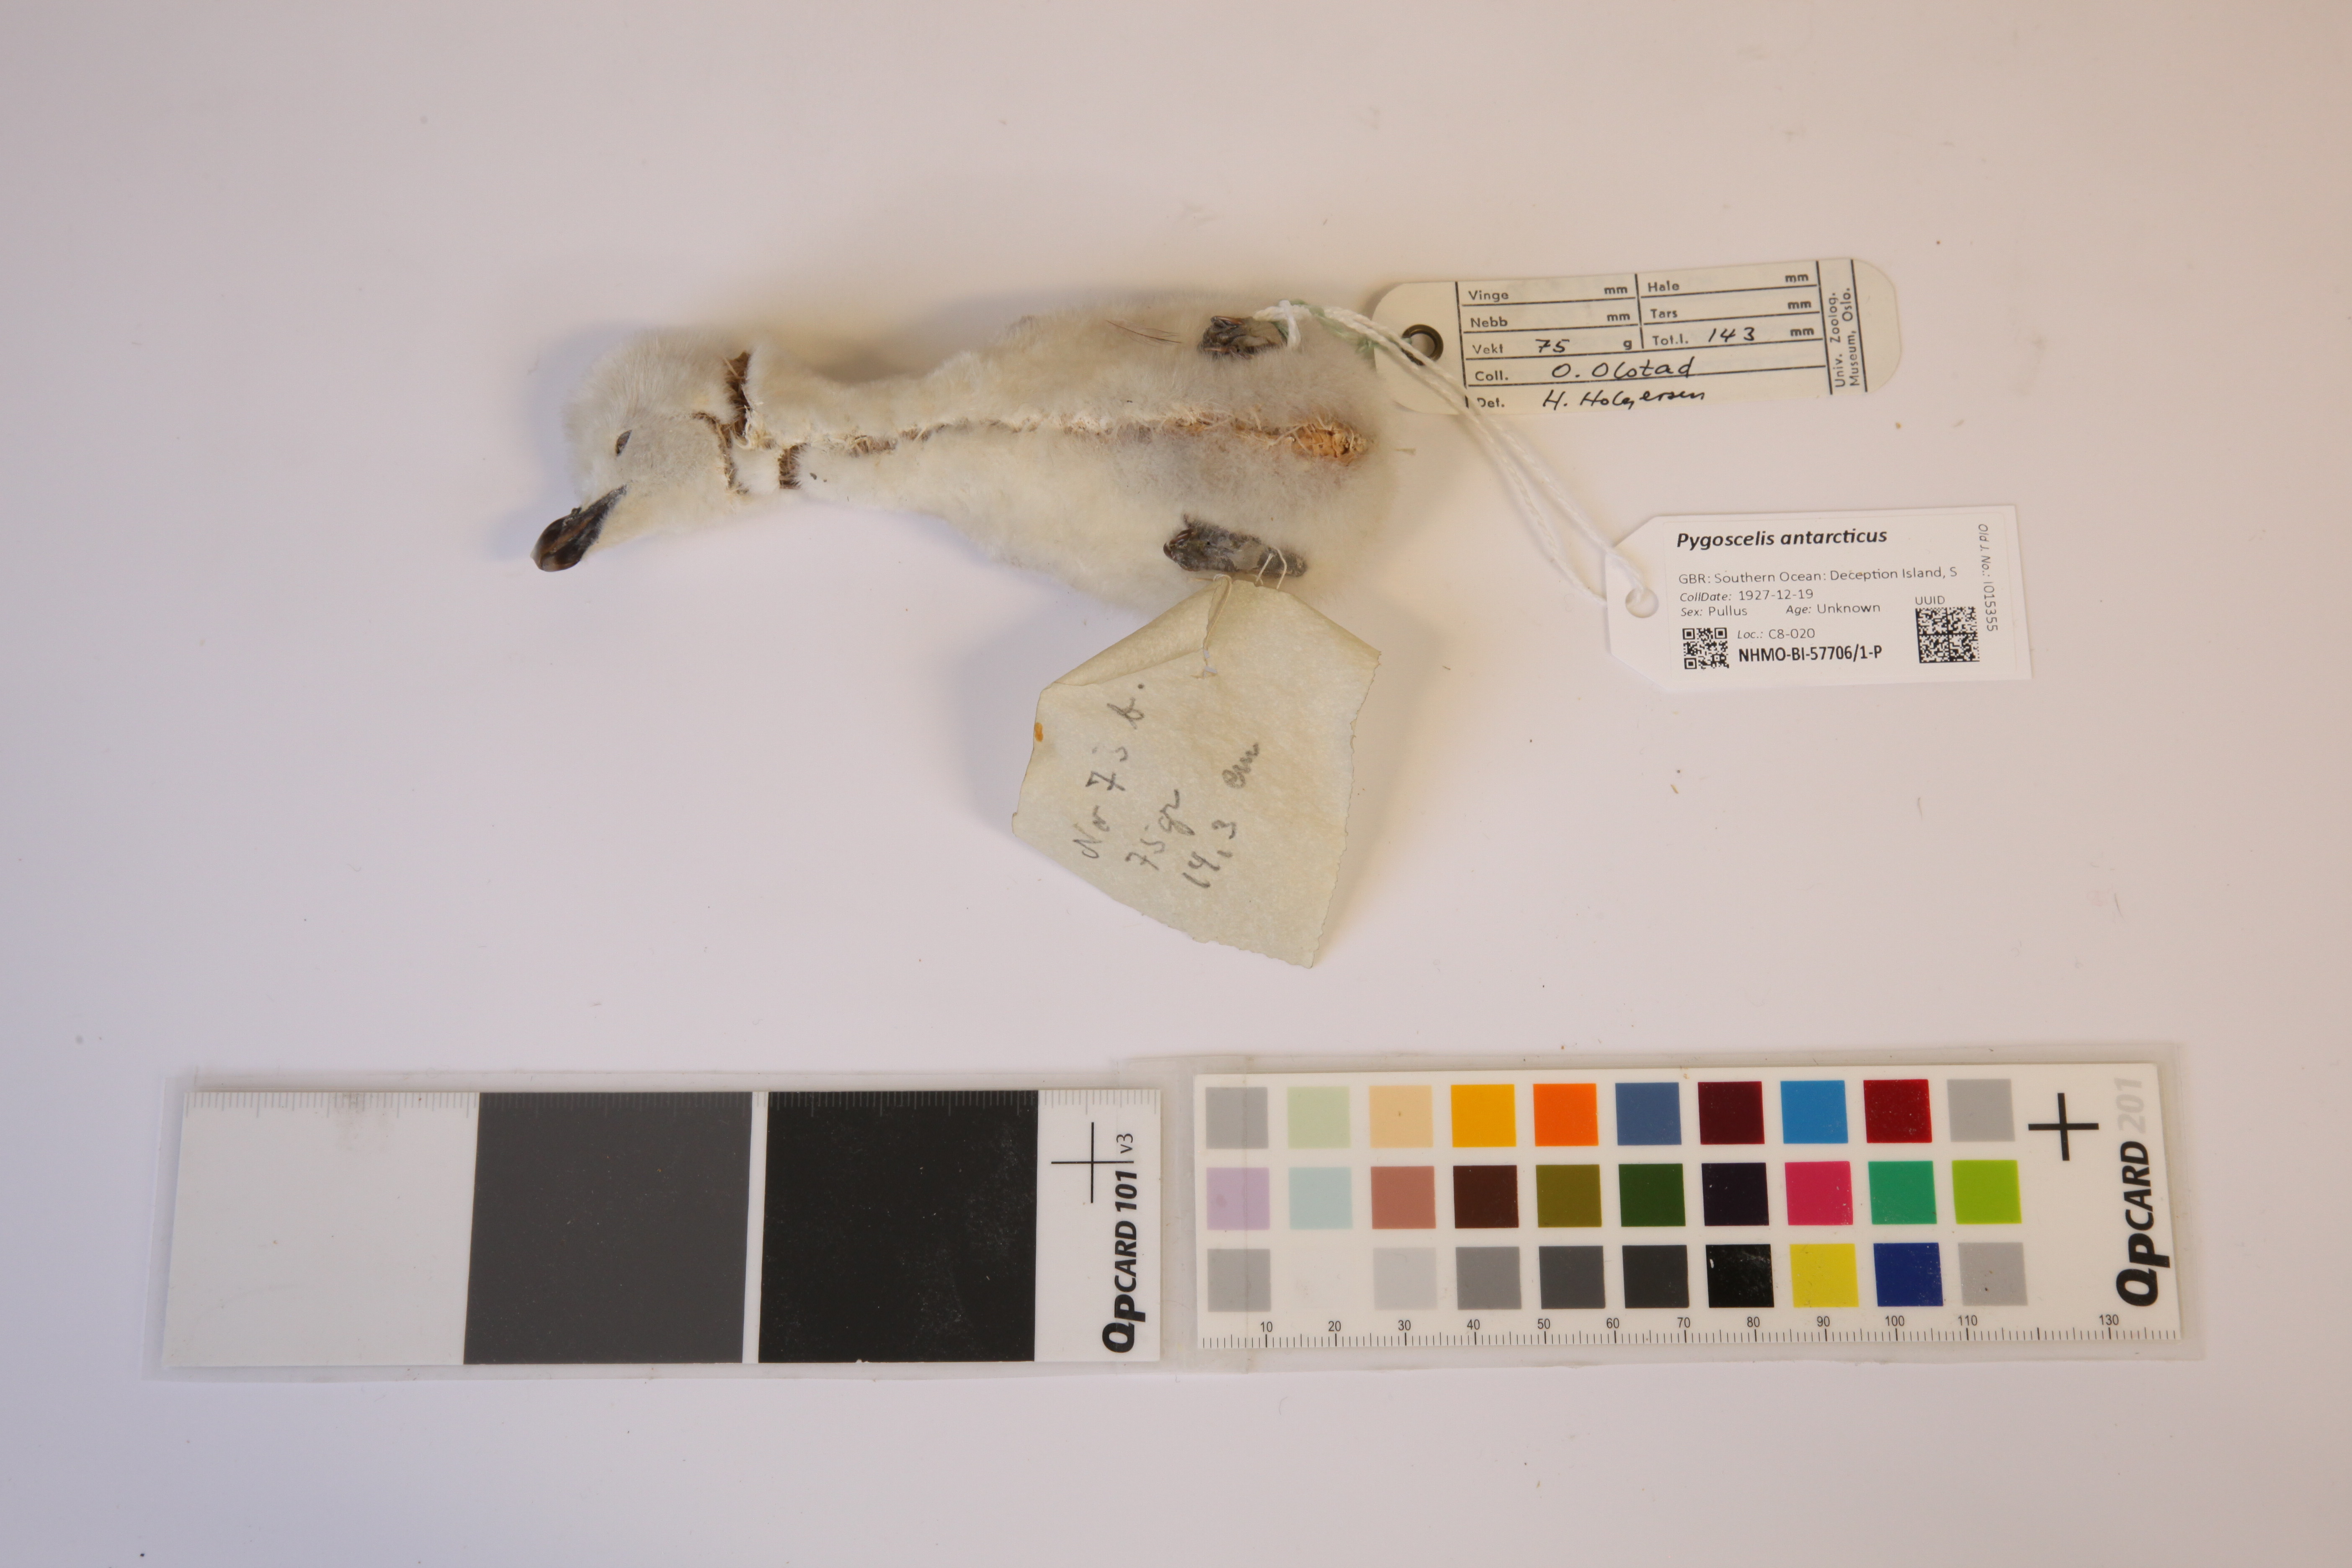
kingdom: Animalia
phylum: Chordata
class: Aves
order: Sphenisciformes
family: Spheniscidae
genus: Pygoscelis
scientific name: Pygoscelis antarcticus
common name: Chinstrap penguin
